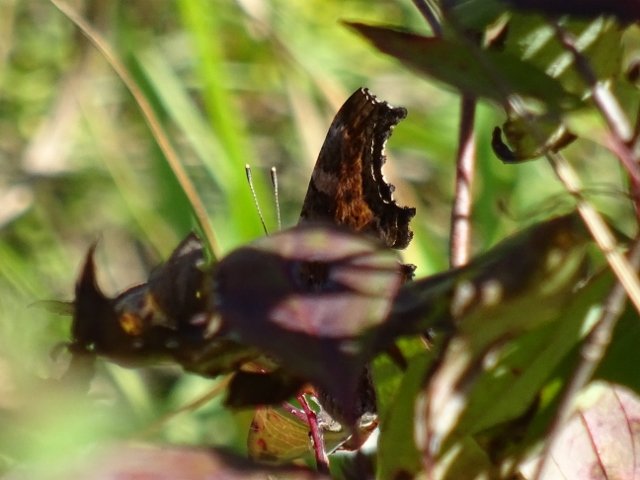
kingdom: Animalia
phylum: Arthropoda
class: Insecta
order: Lepidoptera
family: Nymphalidae
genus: Polygonia
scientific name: Polygonia
